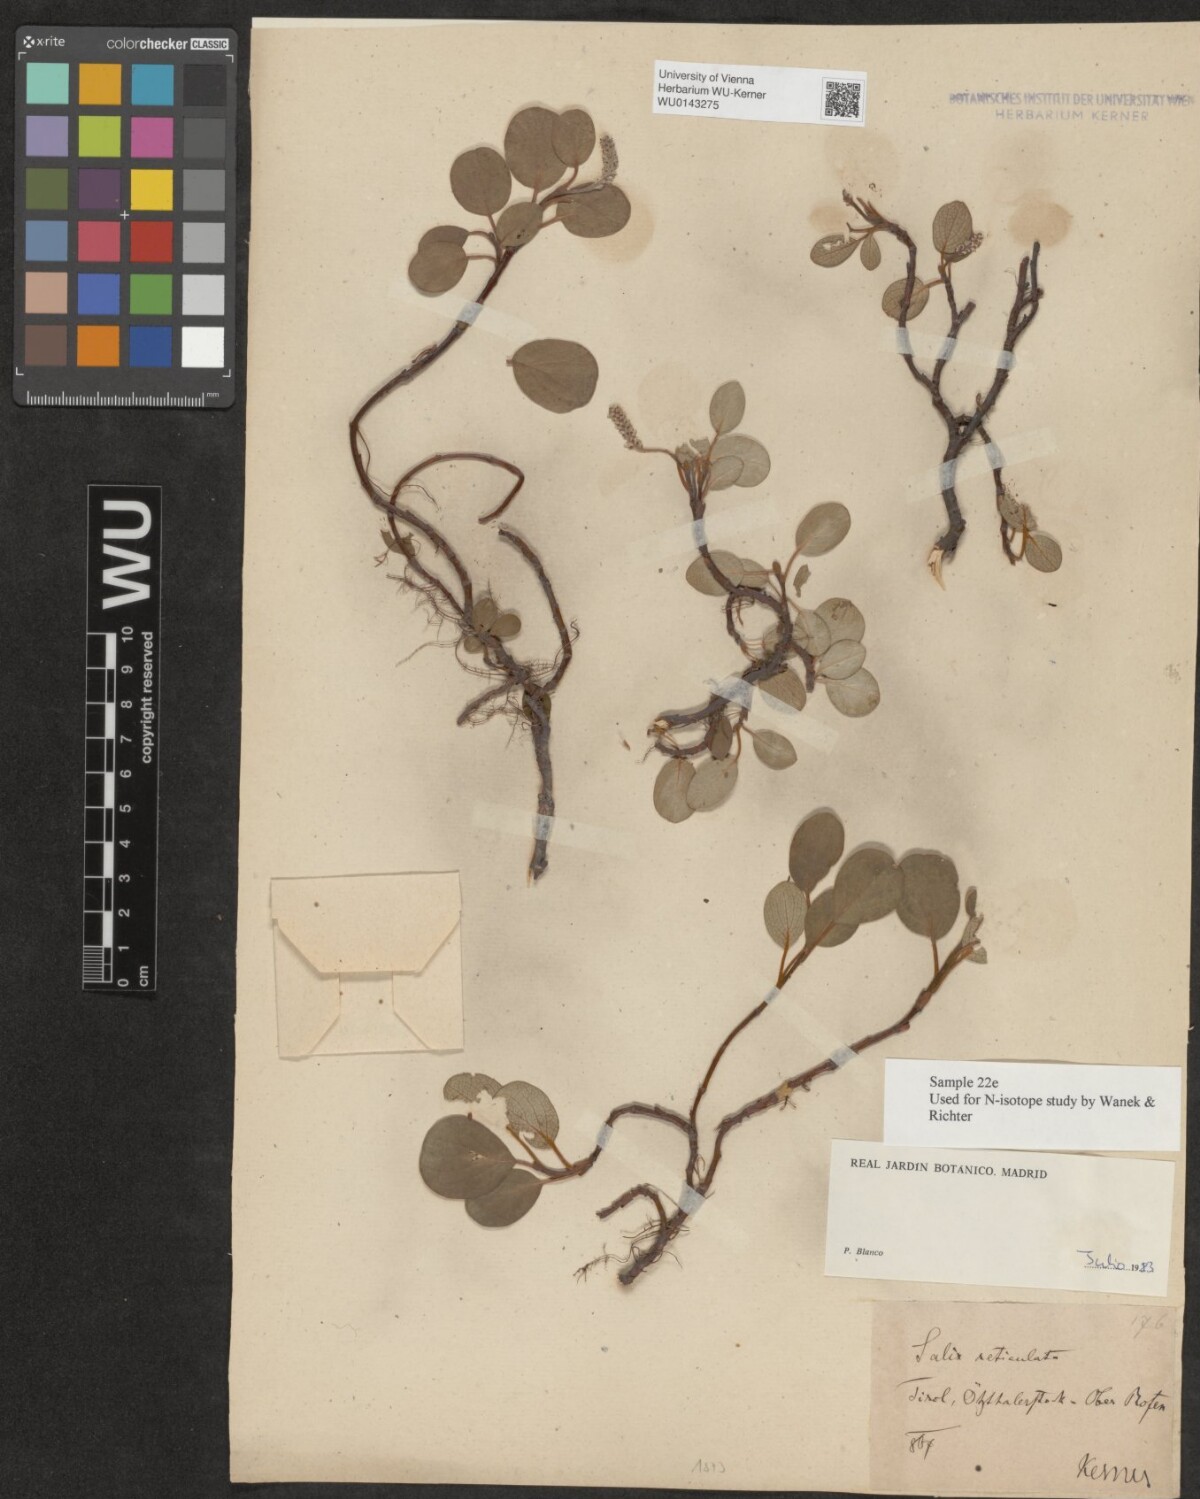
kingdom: Plantae
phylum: Tracheophyta
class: Magnoliopsida
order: Malpighiales
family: Salicaceae
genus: Salix
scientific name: Salix reticulata
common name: Net-leaved willow
